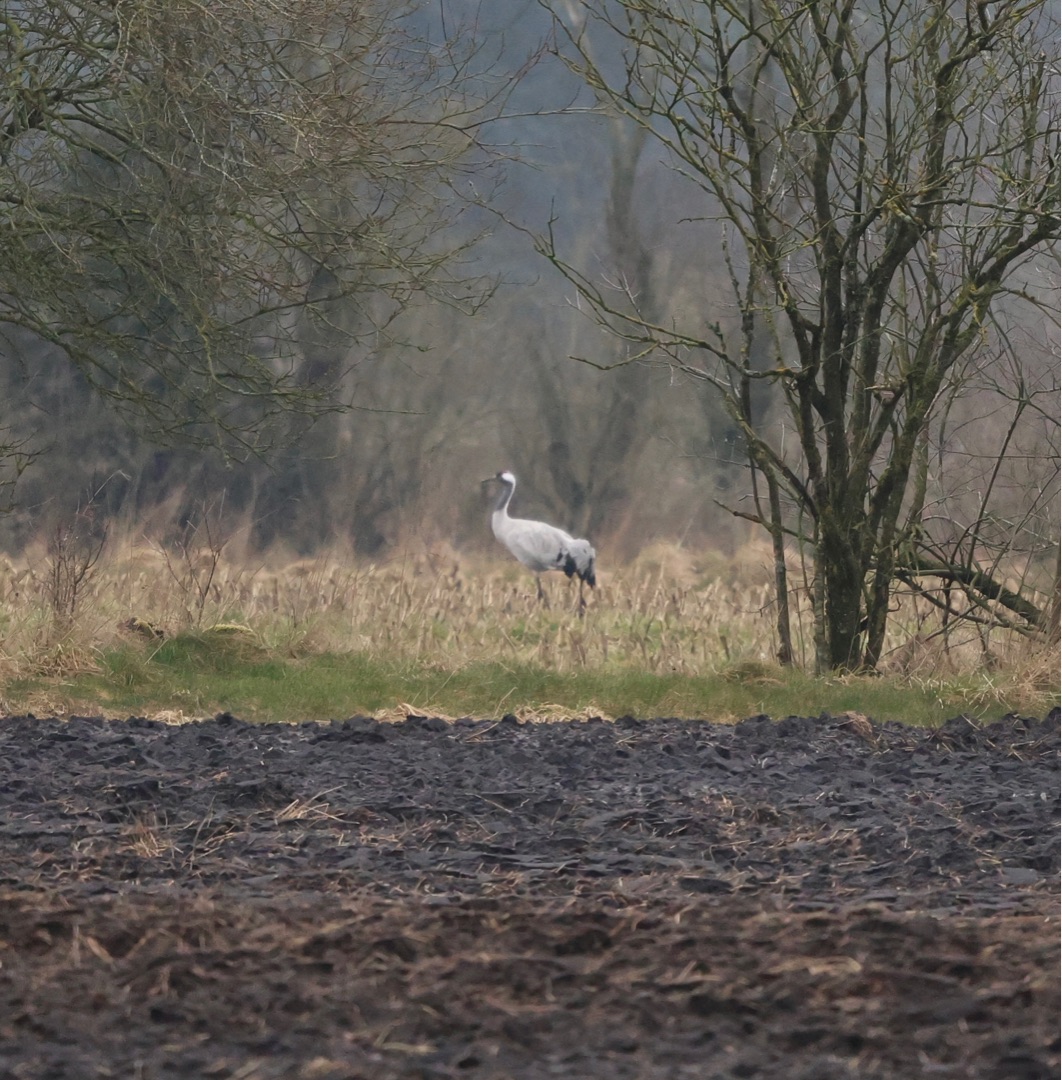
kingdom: Animalia
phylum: Chordata
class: Aves
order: Gruiformes
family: Gruidae
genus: Grus
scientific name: Grus grus
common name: Trane
